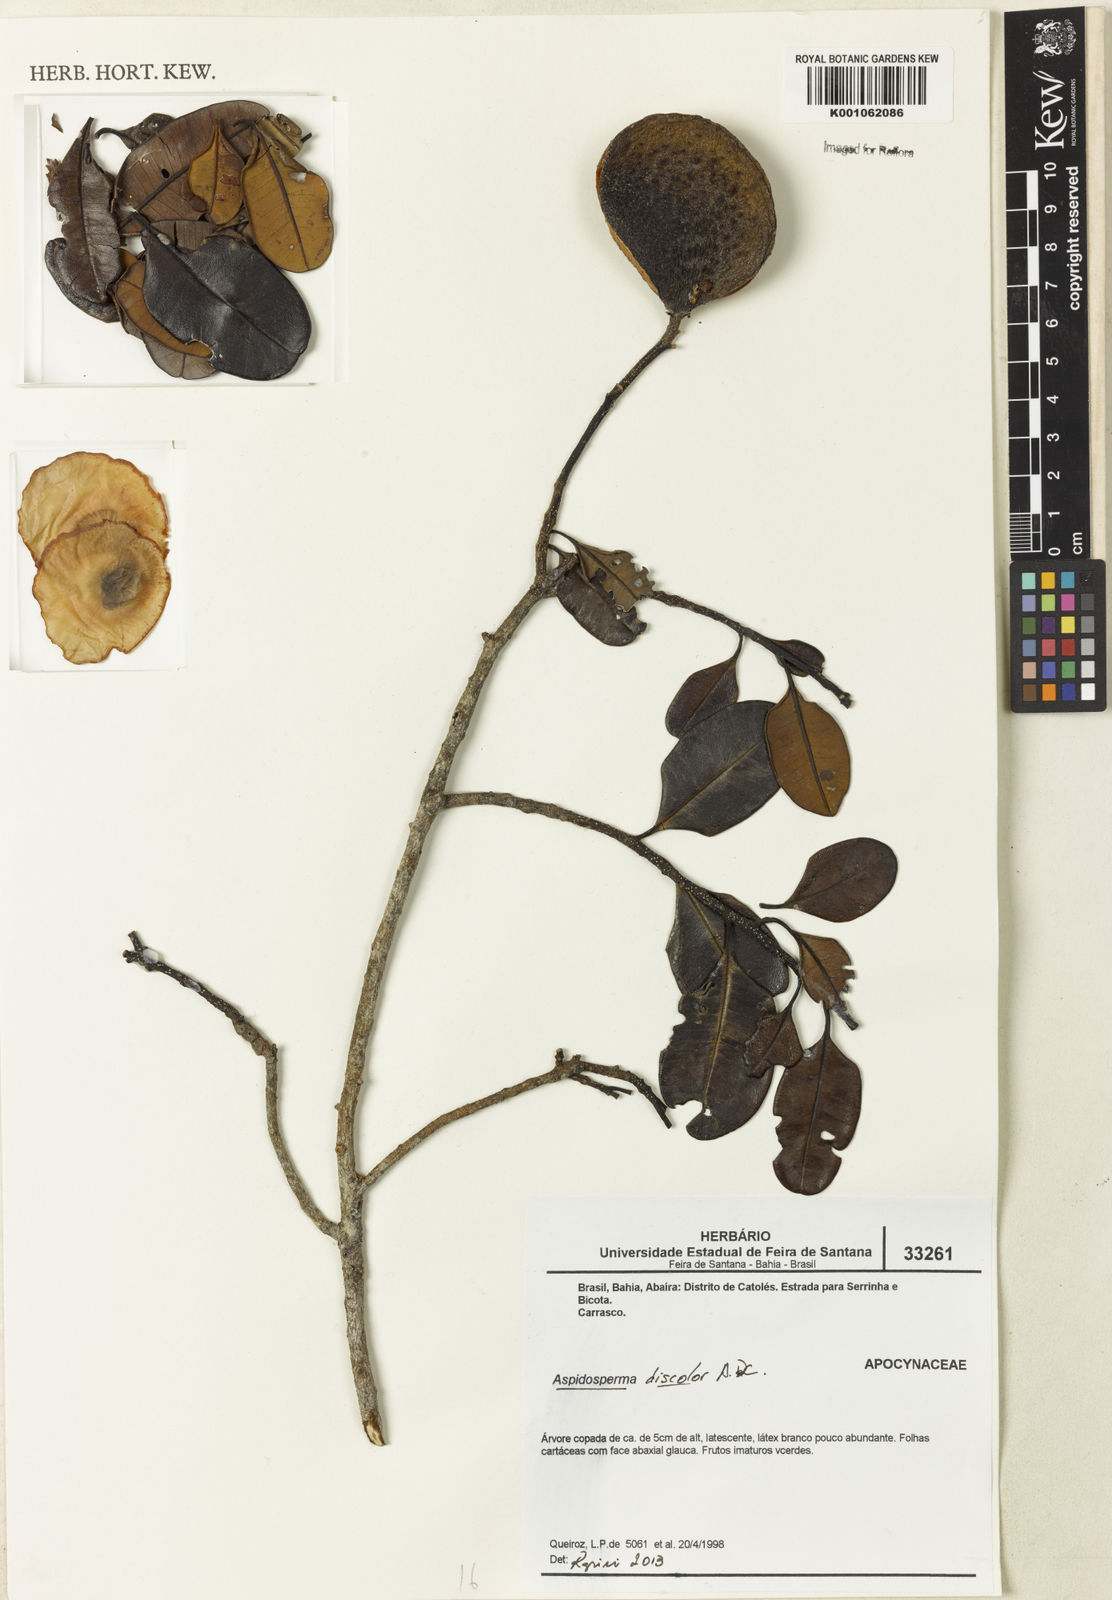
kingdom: Plantae
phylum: Tracheophyta
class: Magnoliopsida
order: Gentianales
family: Apocynaceae
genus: Aspidosperma
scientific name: Aspidosperma discolor
